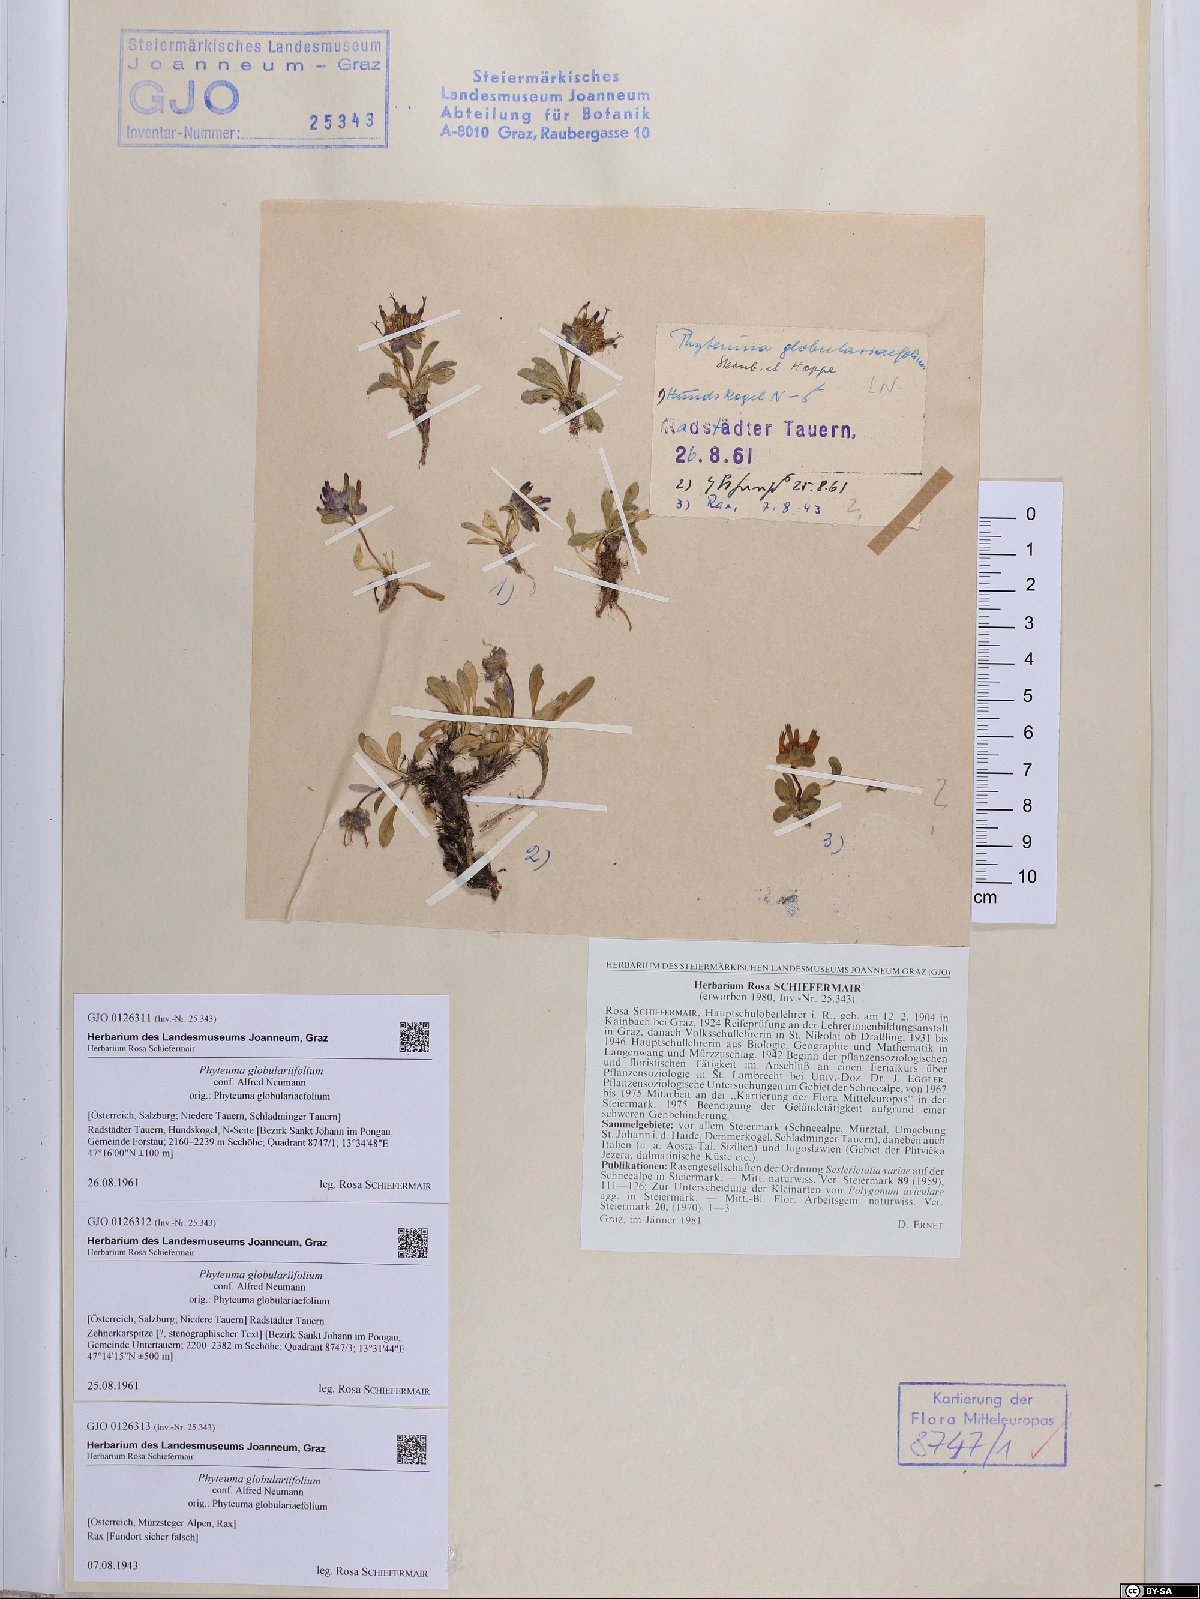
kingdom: Plantae
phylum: Tracheophyta
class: Magnoliopsida
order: Asterales
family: Campanulaceae
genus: Phyteuma
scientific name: Phyteuma globulariifolium
